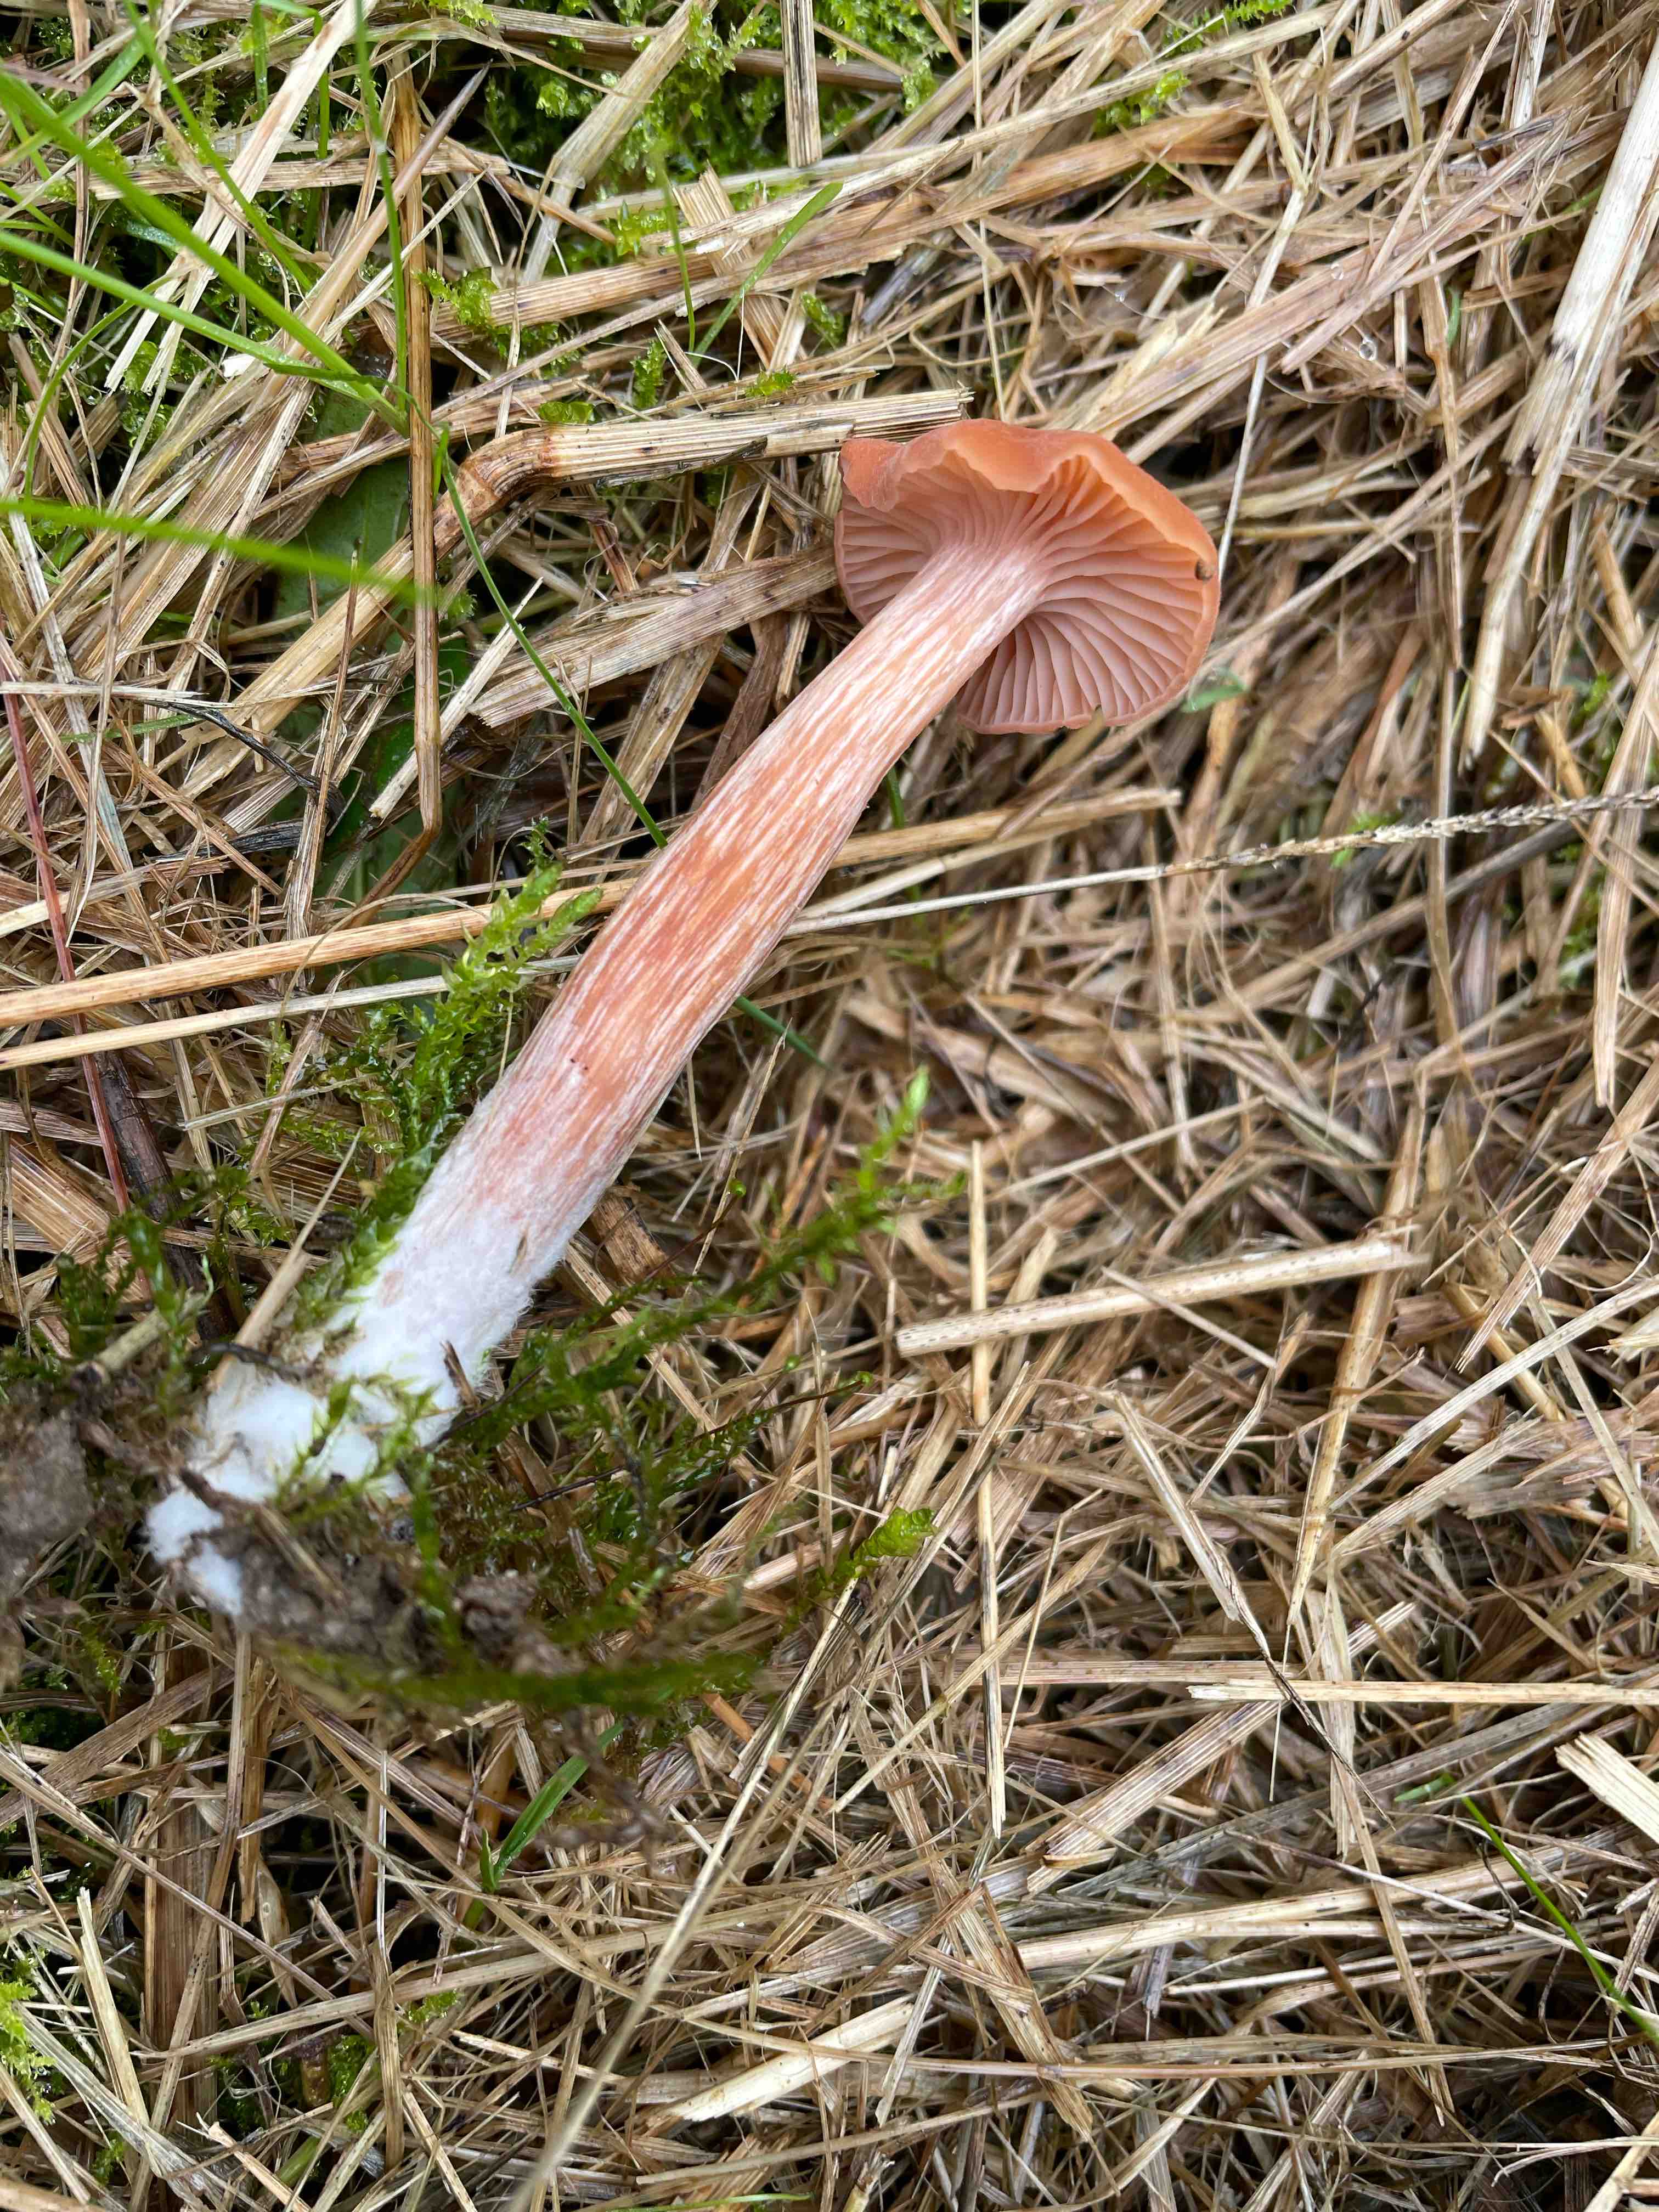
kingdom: Fungi
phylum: Basidiomycota
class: Agaricomycetes
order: Agaricales
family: Hydnangiaceae
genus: Laccaria
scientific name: Laccaria
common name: ametysthat
